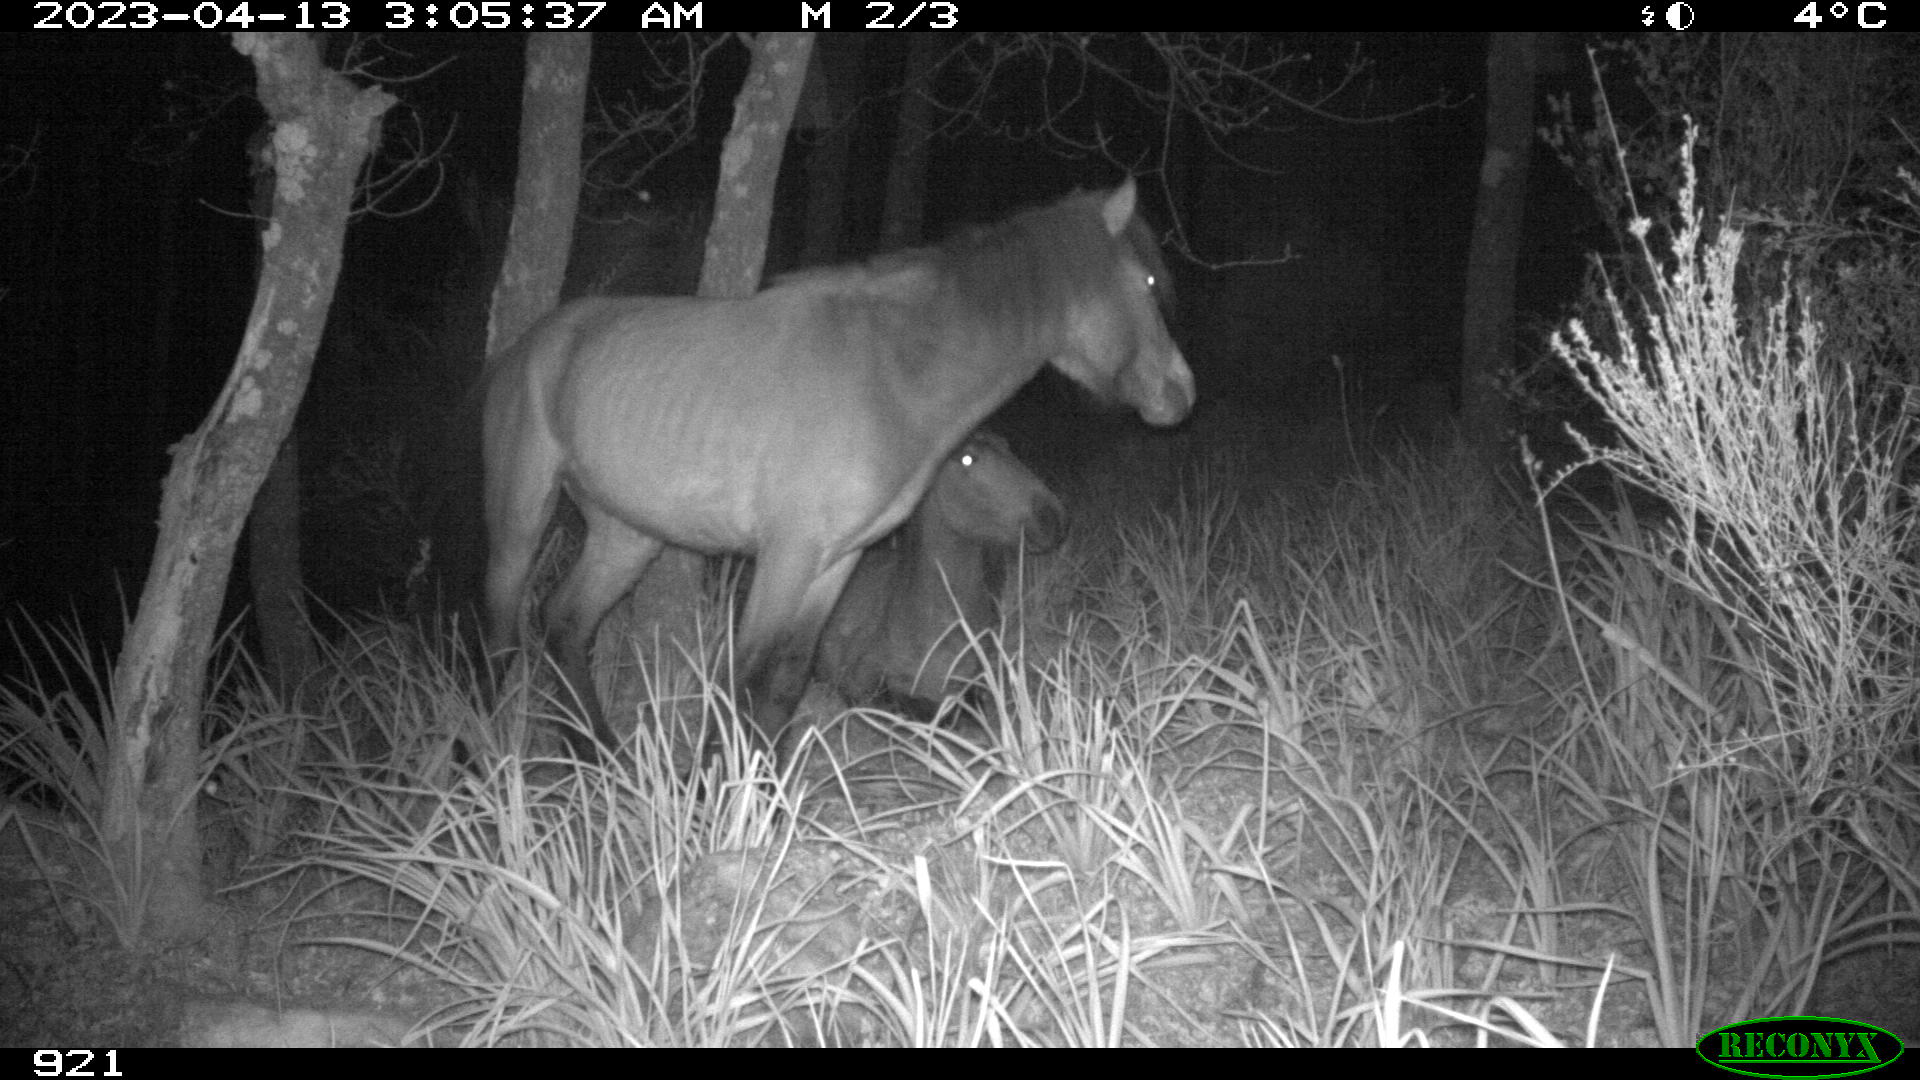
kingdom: Animalia
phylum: Chordata
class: Mammalia
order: Perissodactyla
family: Equidae
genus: Equus
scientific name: Equus caballus
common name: Horse
